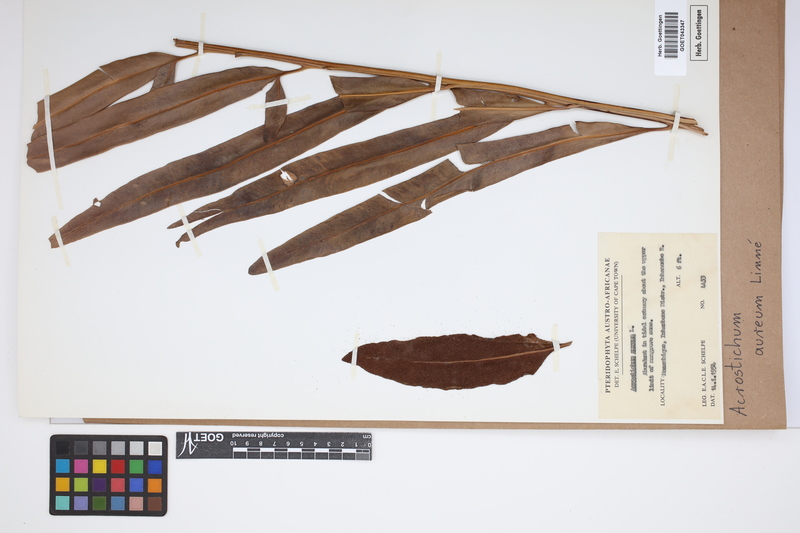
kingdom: Plantae
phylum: Tracheophyta
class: Polypodiopsida
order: Polypodiales
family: Pteridaceae
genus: Acrostichum
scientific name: Acrostichum aureum
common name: Leather fern
